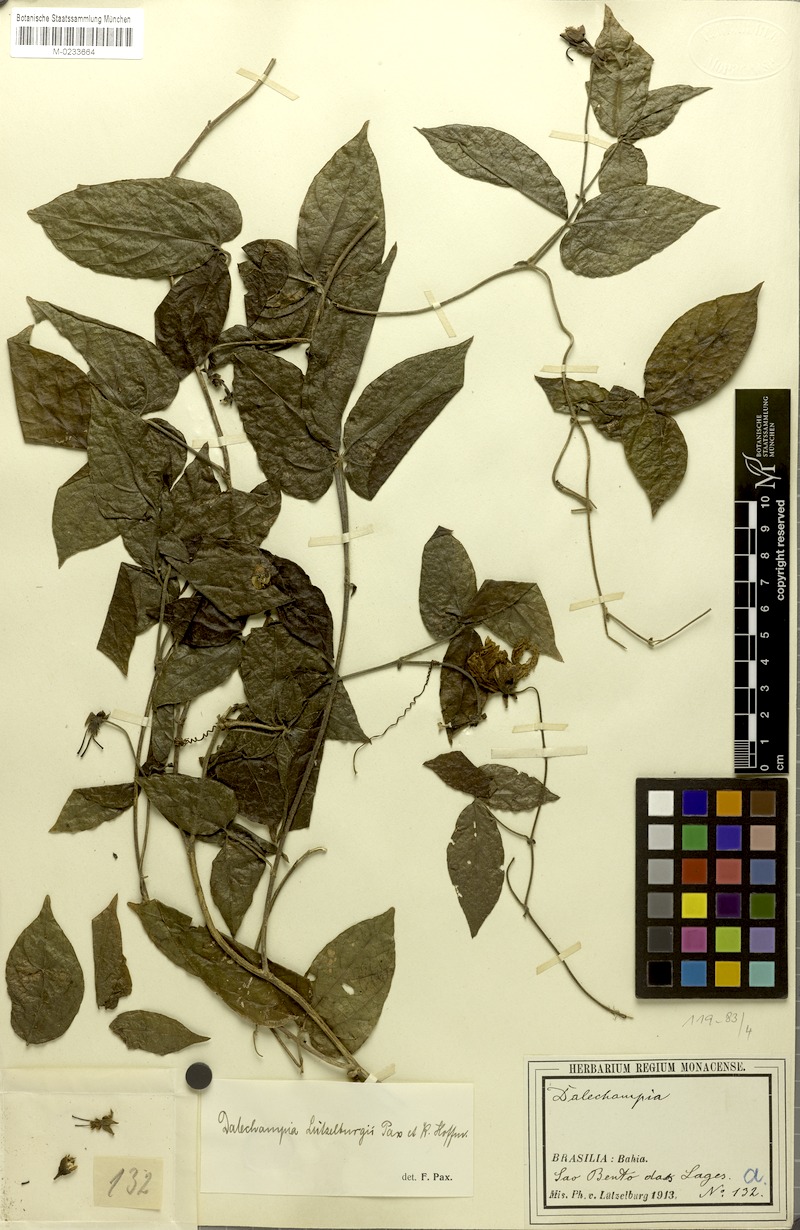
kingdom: Plantae
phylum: Tracheophyta
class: Magnoliopsida
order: Malpighiales
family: Euphorbiaceae
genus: Dalechampia
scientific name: Dalechampia luetzelburgii
